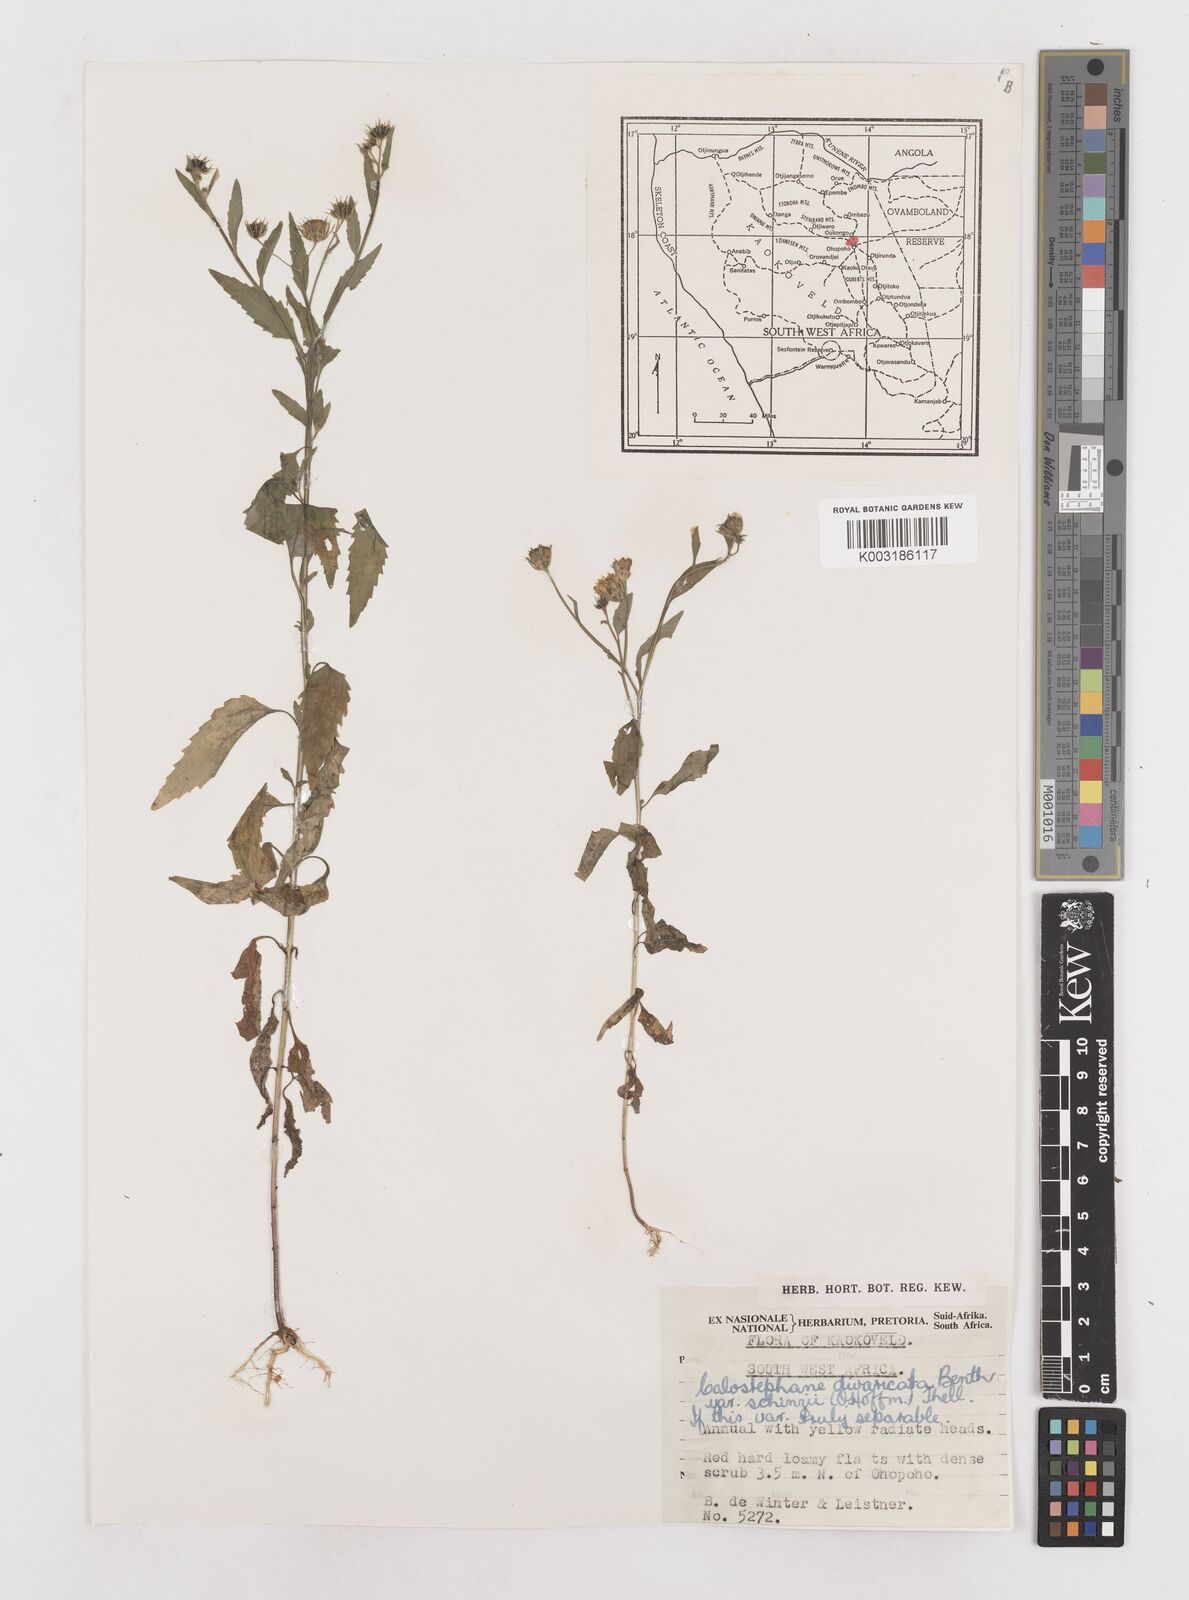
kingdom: Plantae
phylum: Tracheophyta
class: Magnoliopsida
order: Asterales
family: Asteraceae
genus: Calostephane
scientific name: Calostephane divaricata
